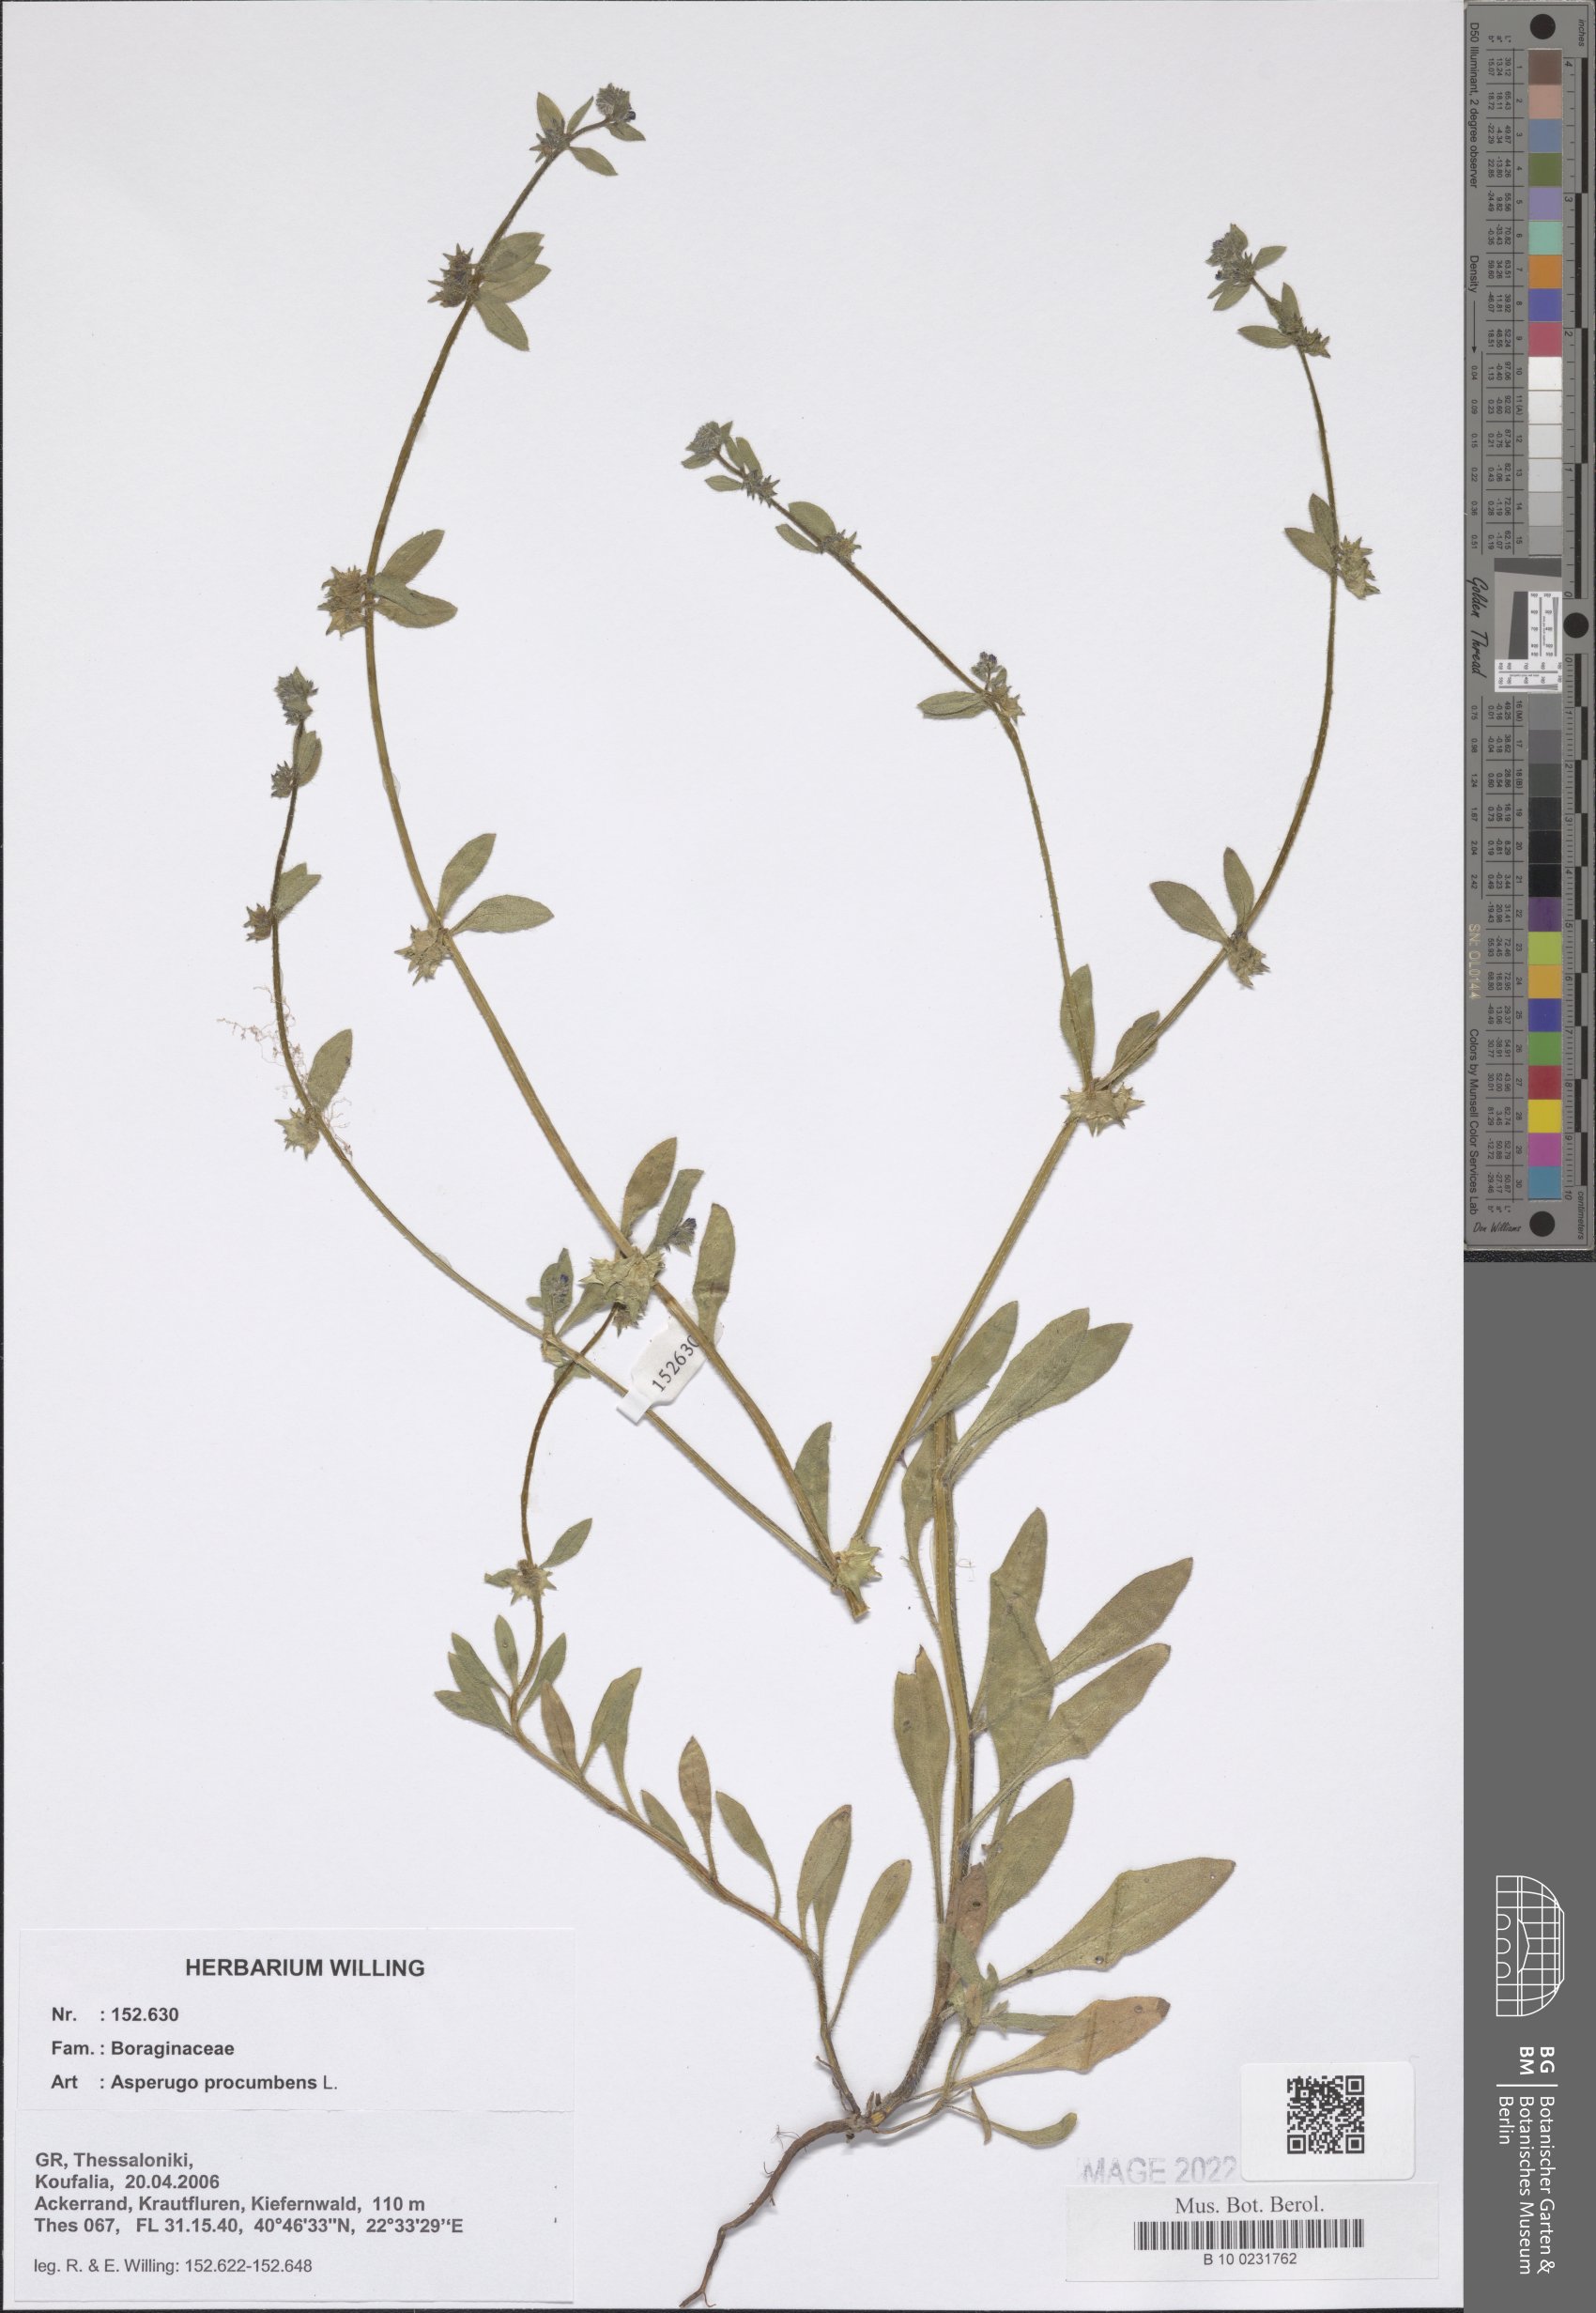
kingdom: Plantae
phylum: Tracheophyta
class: Magnoliopsida
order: Boraginales
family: Boraginaceae
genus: Asperugo
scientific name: Asperugo procumbens
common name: Madwort
